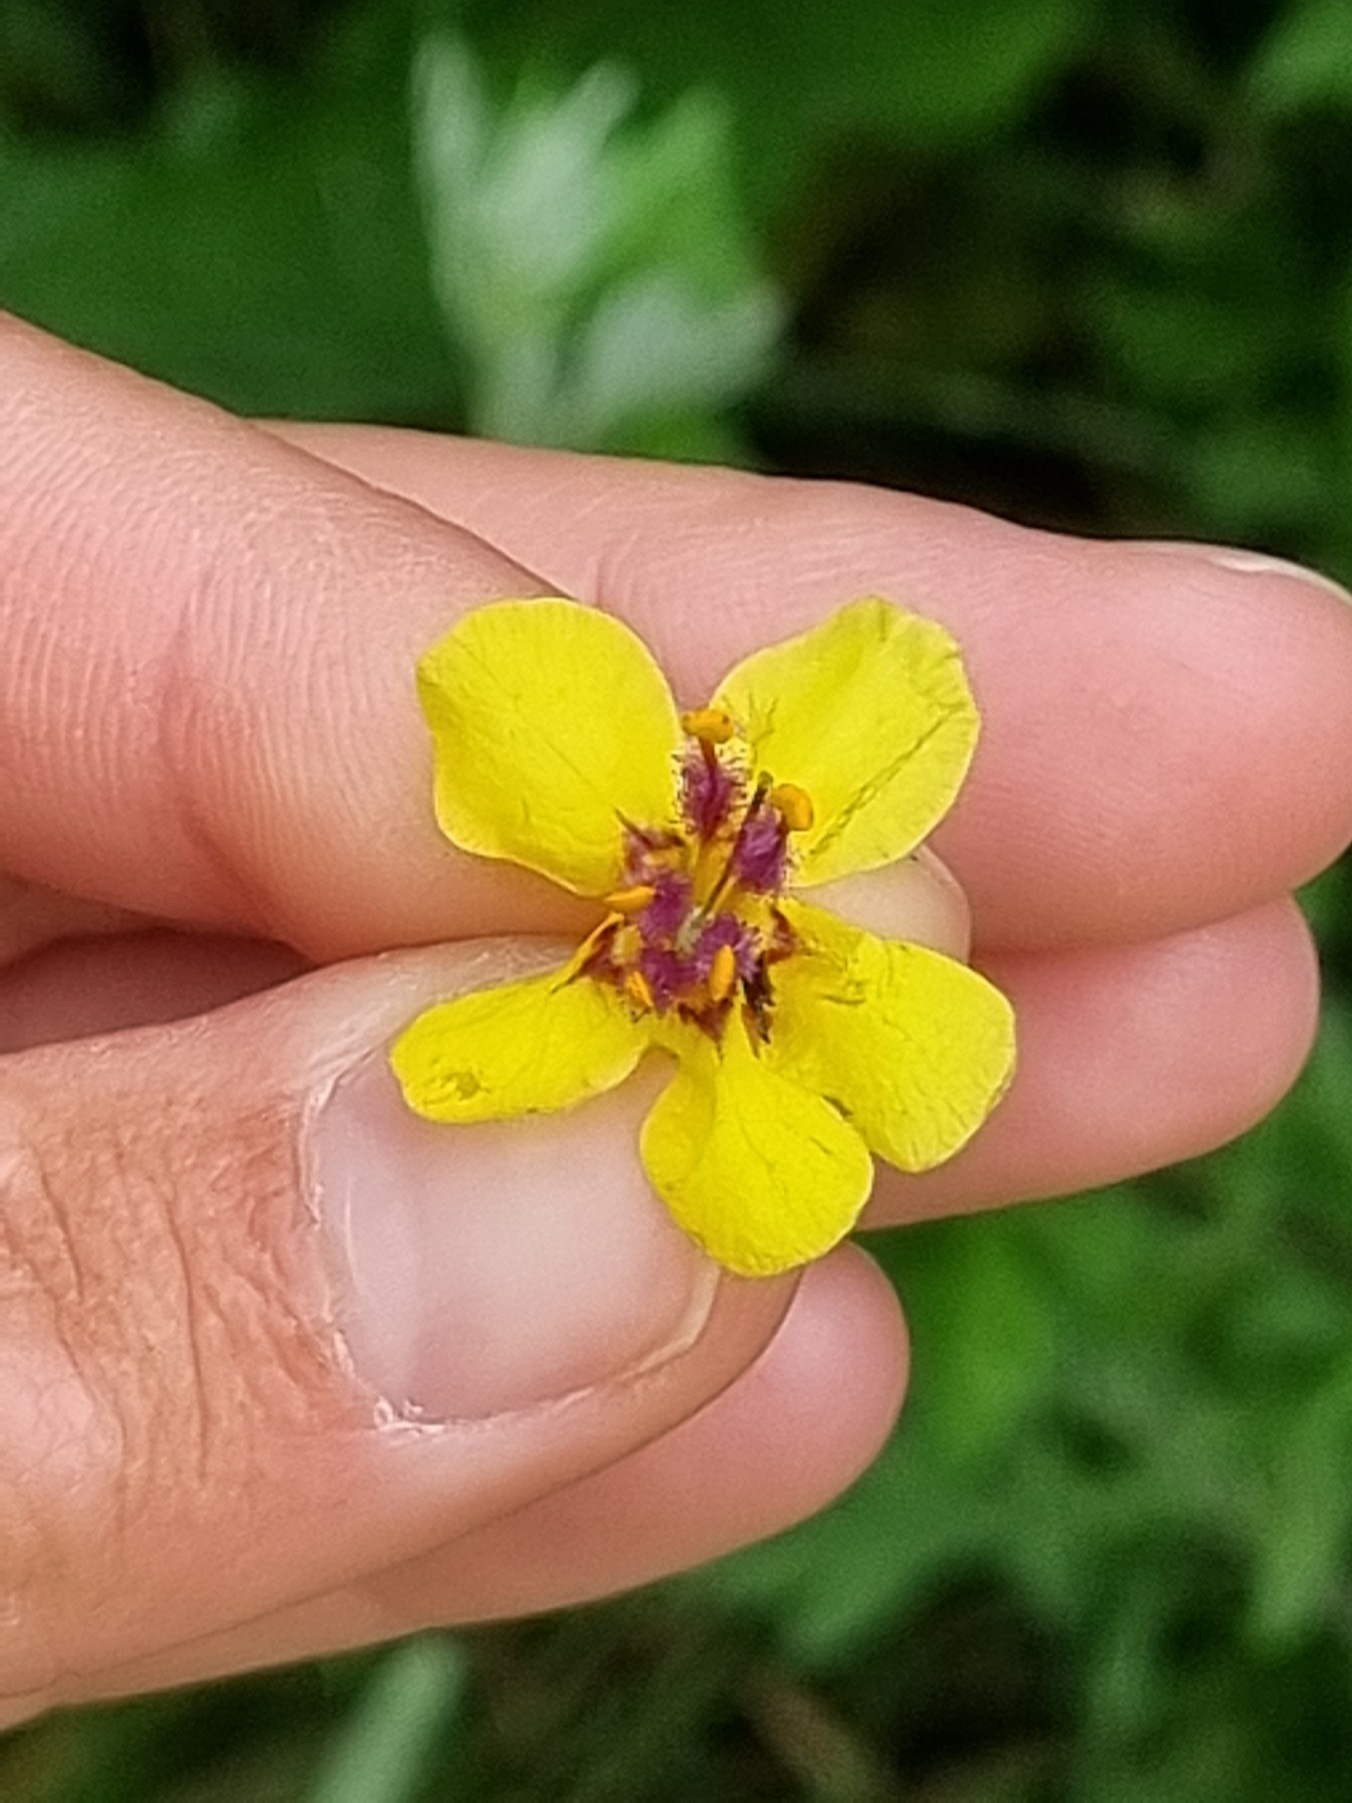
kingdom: Plantae
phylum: Tracheophyta
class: Magnoliopsida
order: Lamiales
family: Scrophulariaceae
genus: Verbascum
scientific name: Verbascum nigrum
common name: Mørk kongelys
